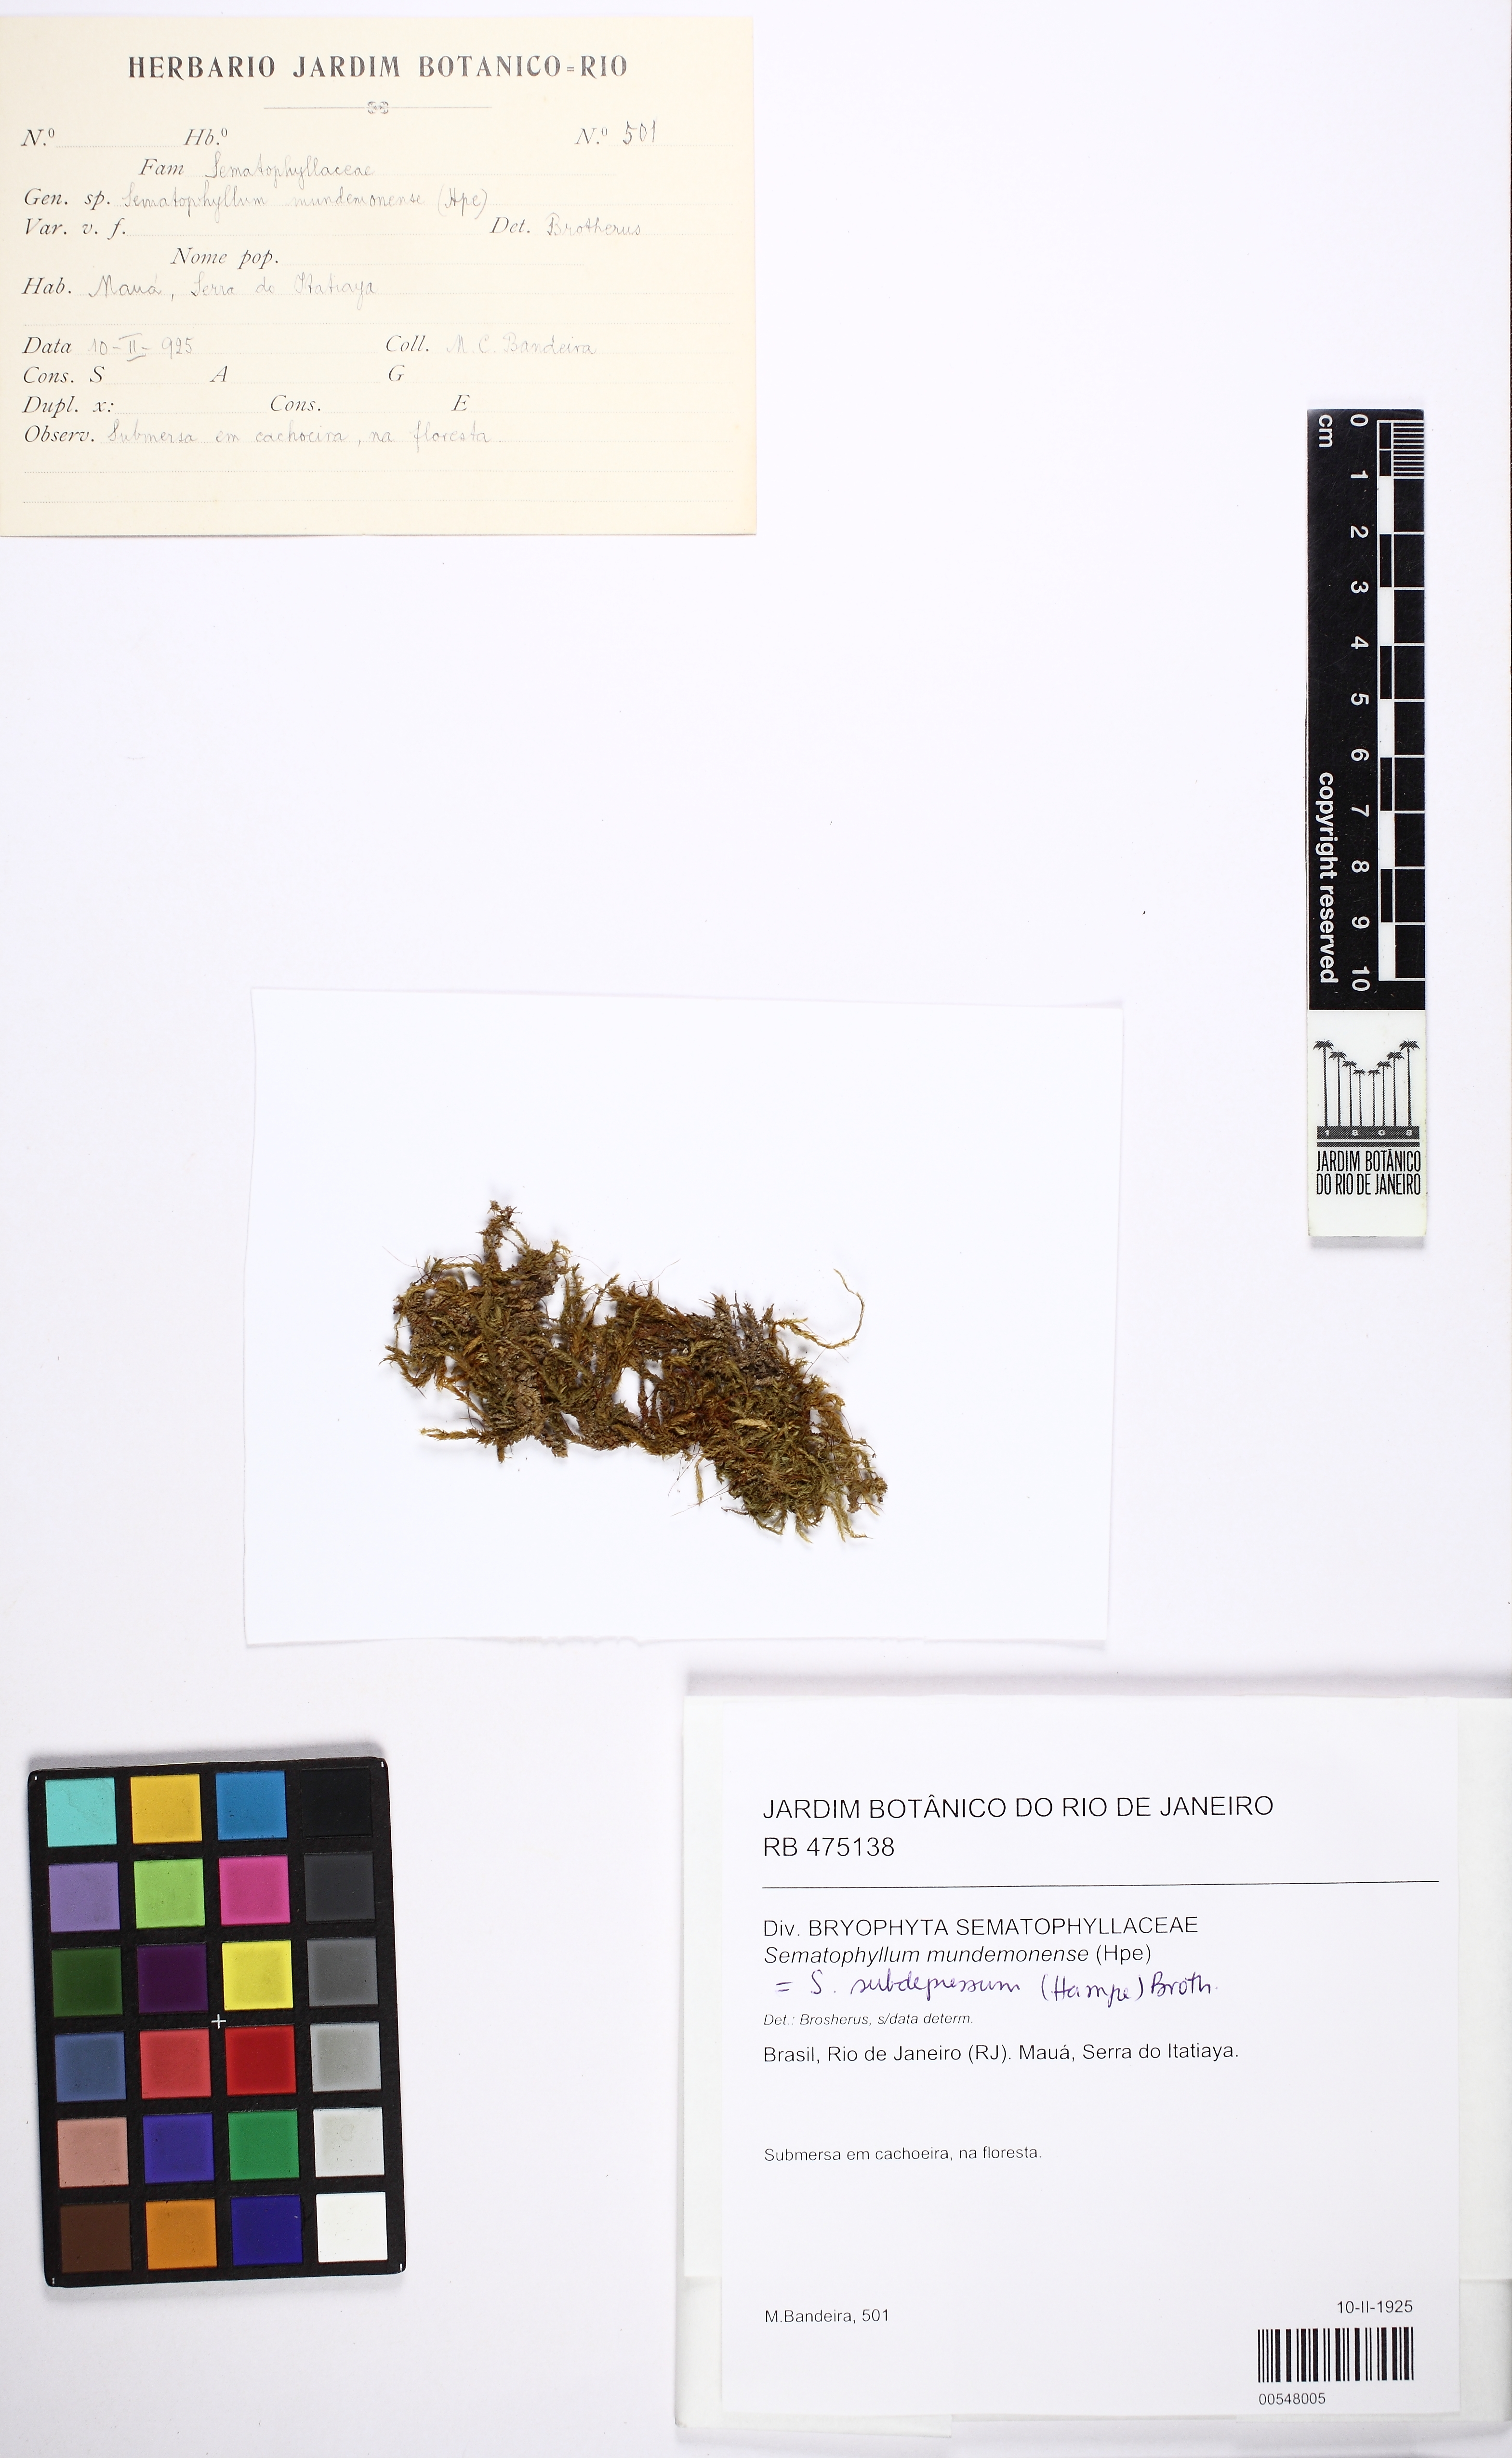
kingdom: Plantae
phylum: Bryophyta
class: Bryopsida
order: Hypnales
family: Sematophyllaceae
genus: Sematophyllum
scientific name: Sematophyllum subdepressum
